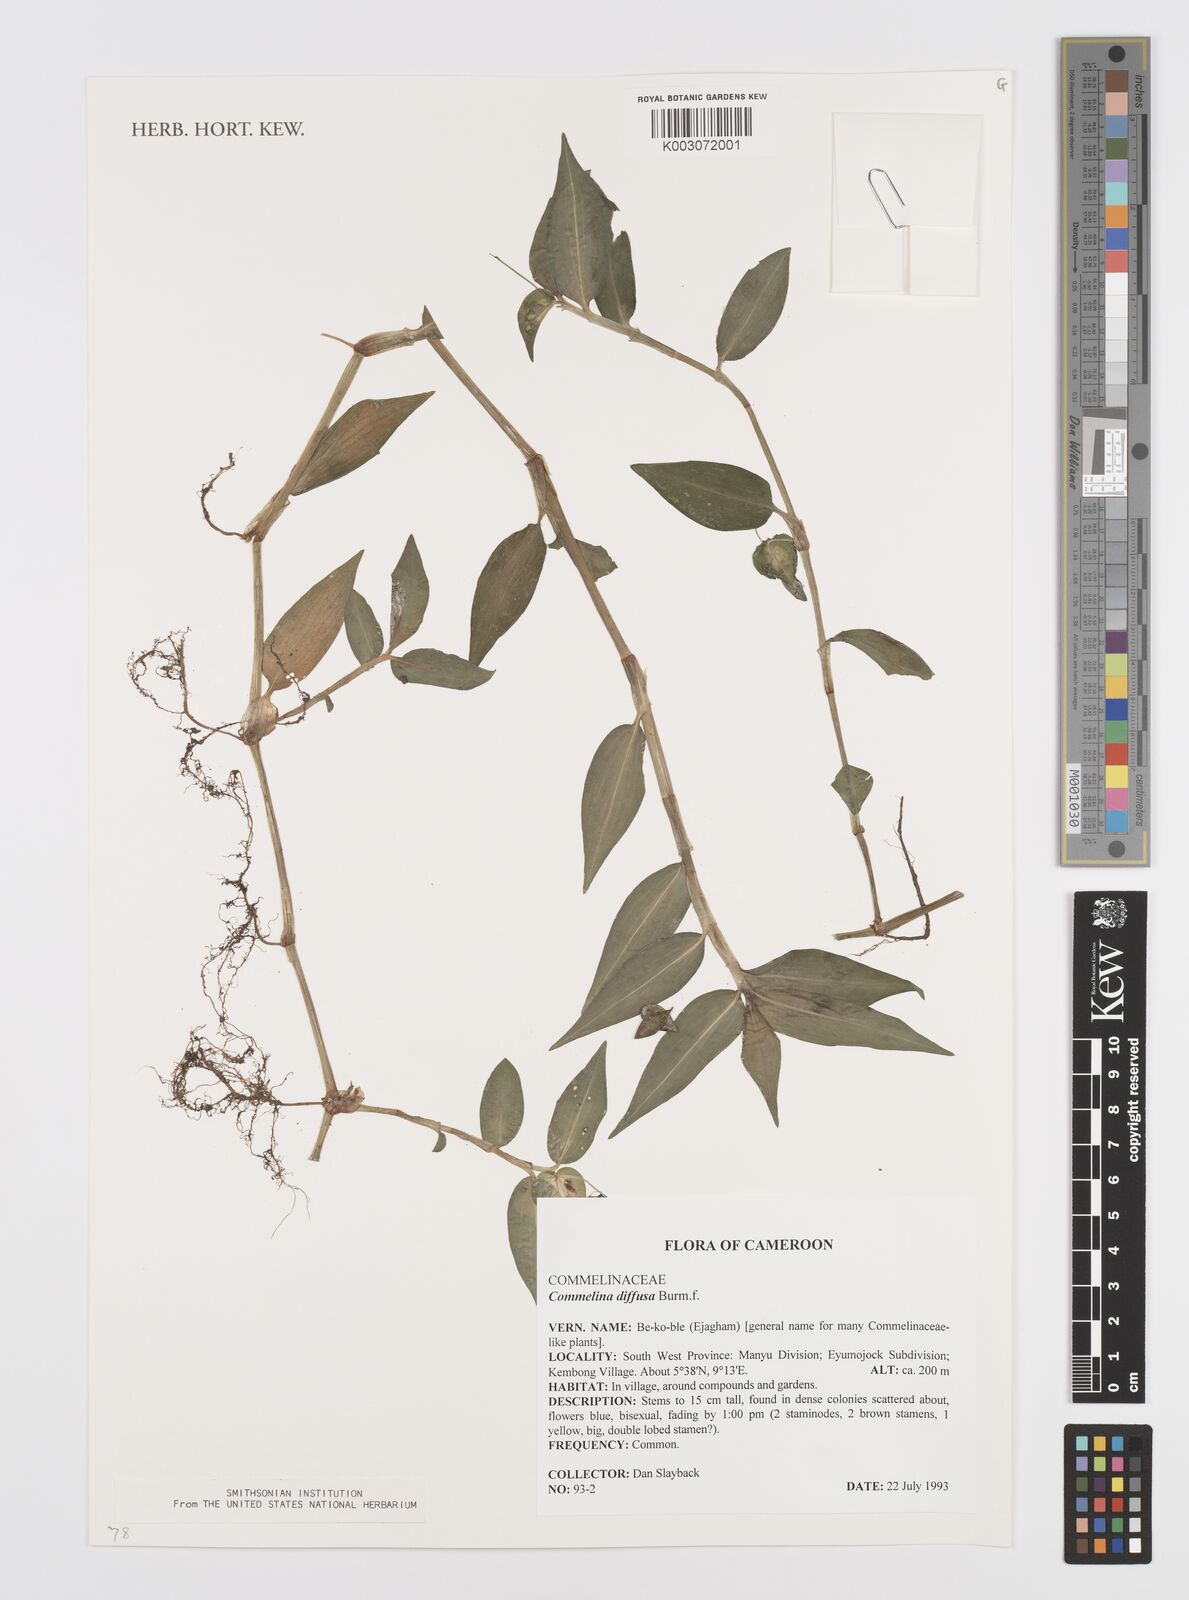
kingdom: Plantae
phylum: Tracheophyta
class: Liliopsida
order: Commelinales
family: Commelinaceae
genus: Commelina
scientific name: Commelina diffusa
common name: Climbing dayflower
